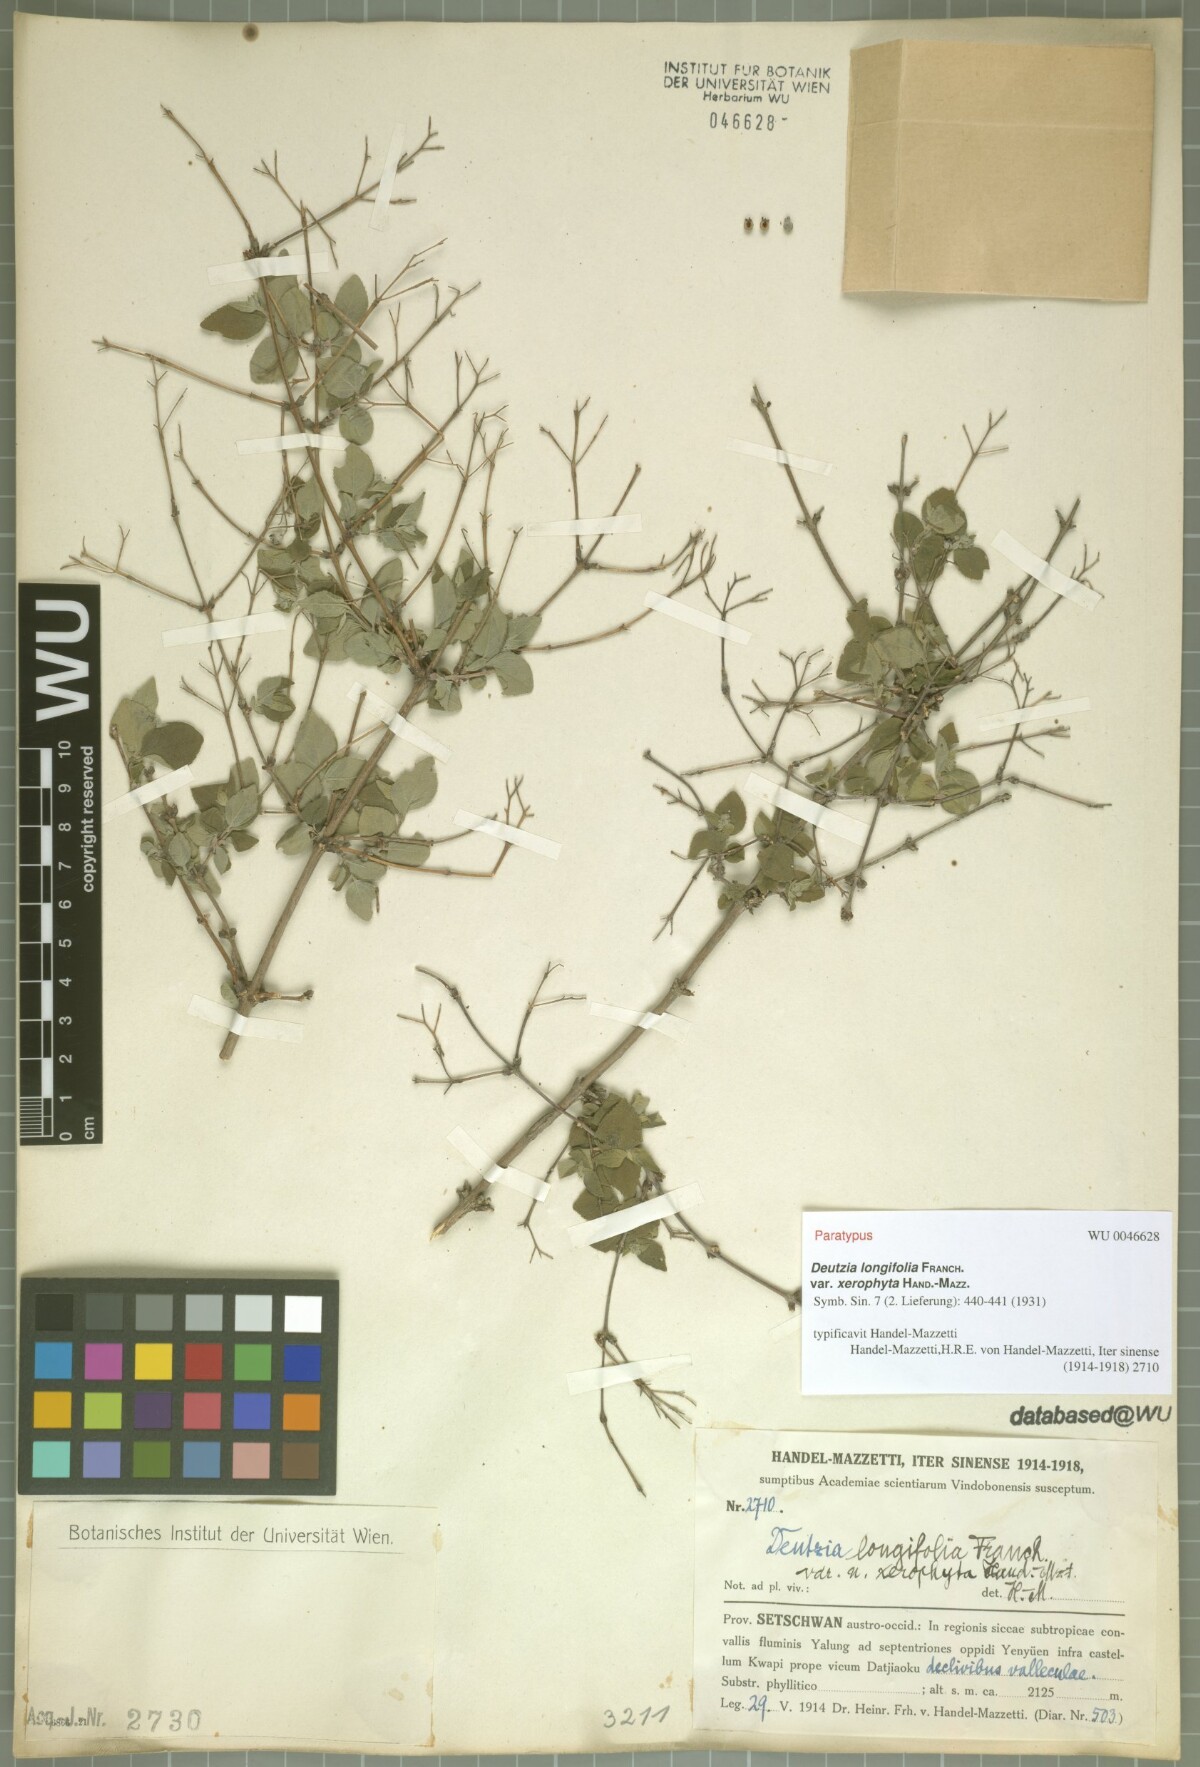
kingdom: Plantae
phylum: Tracheophyta
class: Magnoliopsida
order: Cornales
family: Hydrangeaceae
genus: Deutzia
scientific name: Deutzia calycosa
